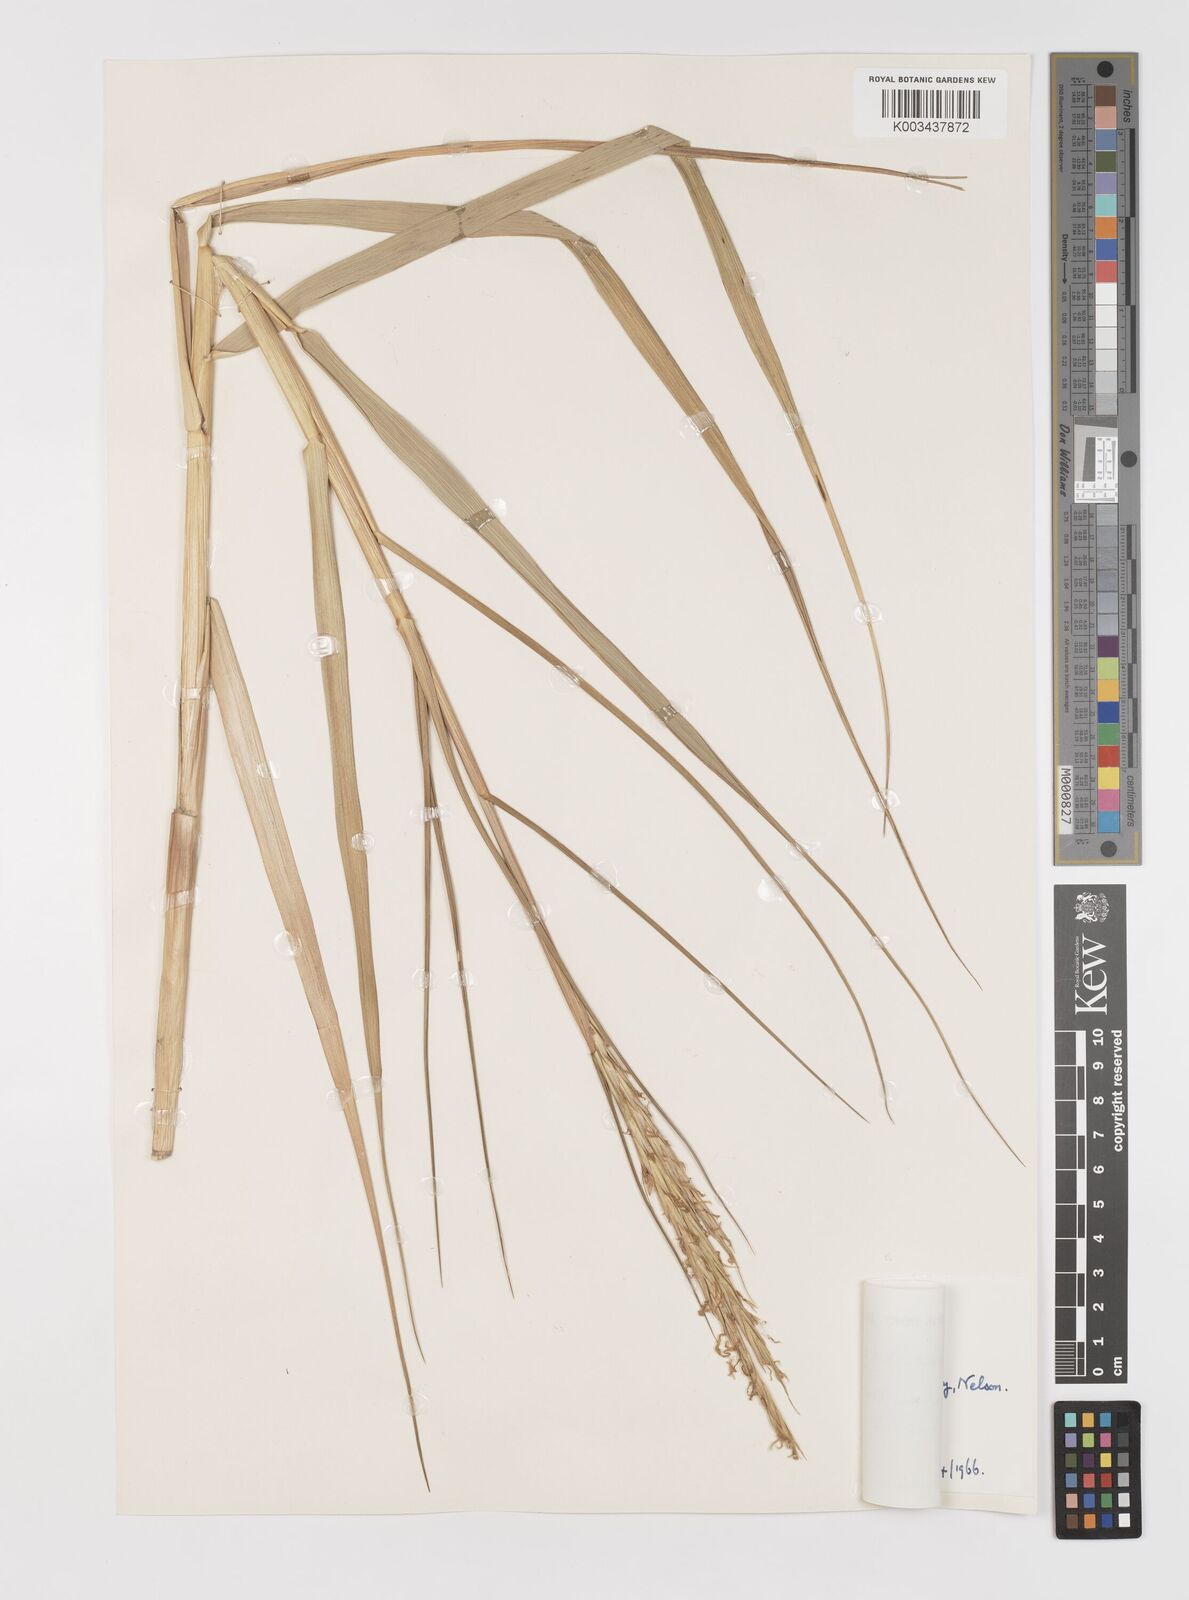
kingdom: Plantae
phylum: Tracheophyta
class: Liliopsida
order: Poales
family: Poaceae
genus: Sporobolus
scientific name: Sporobolus anglicus
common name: English cordgrass
